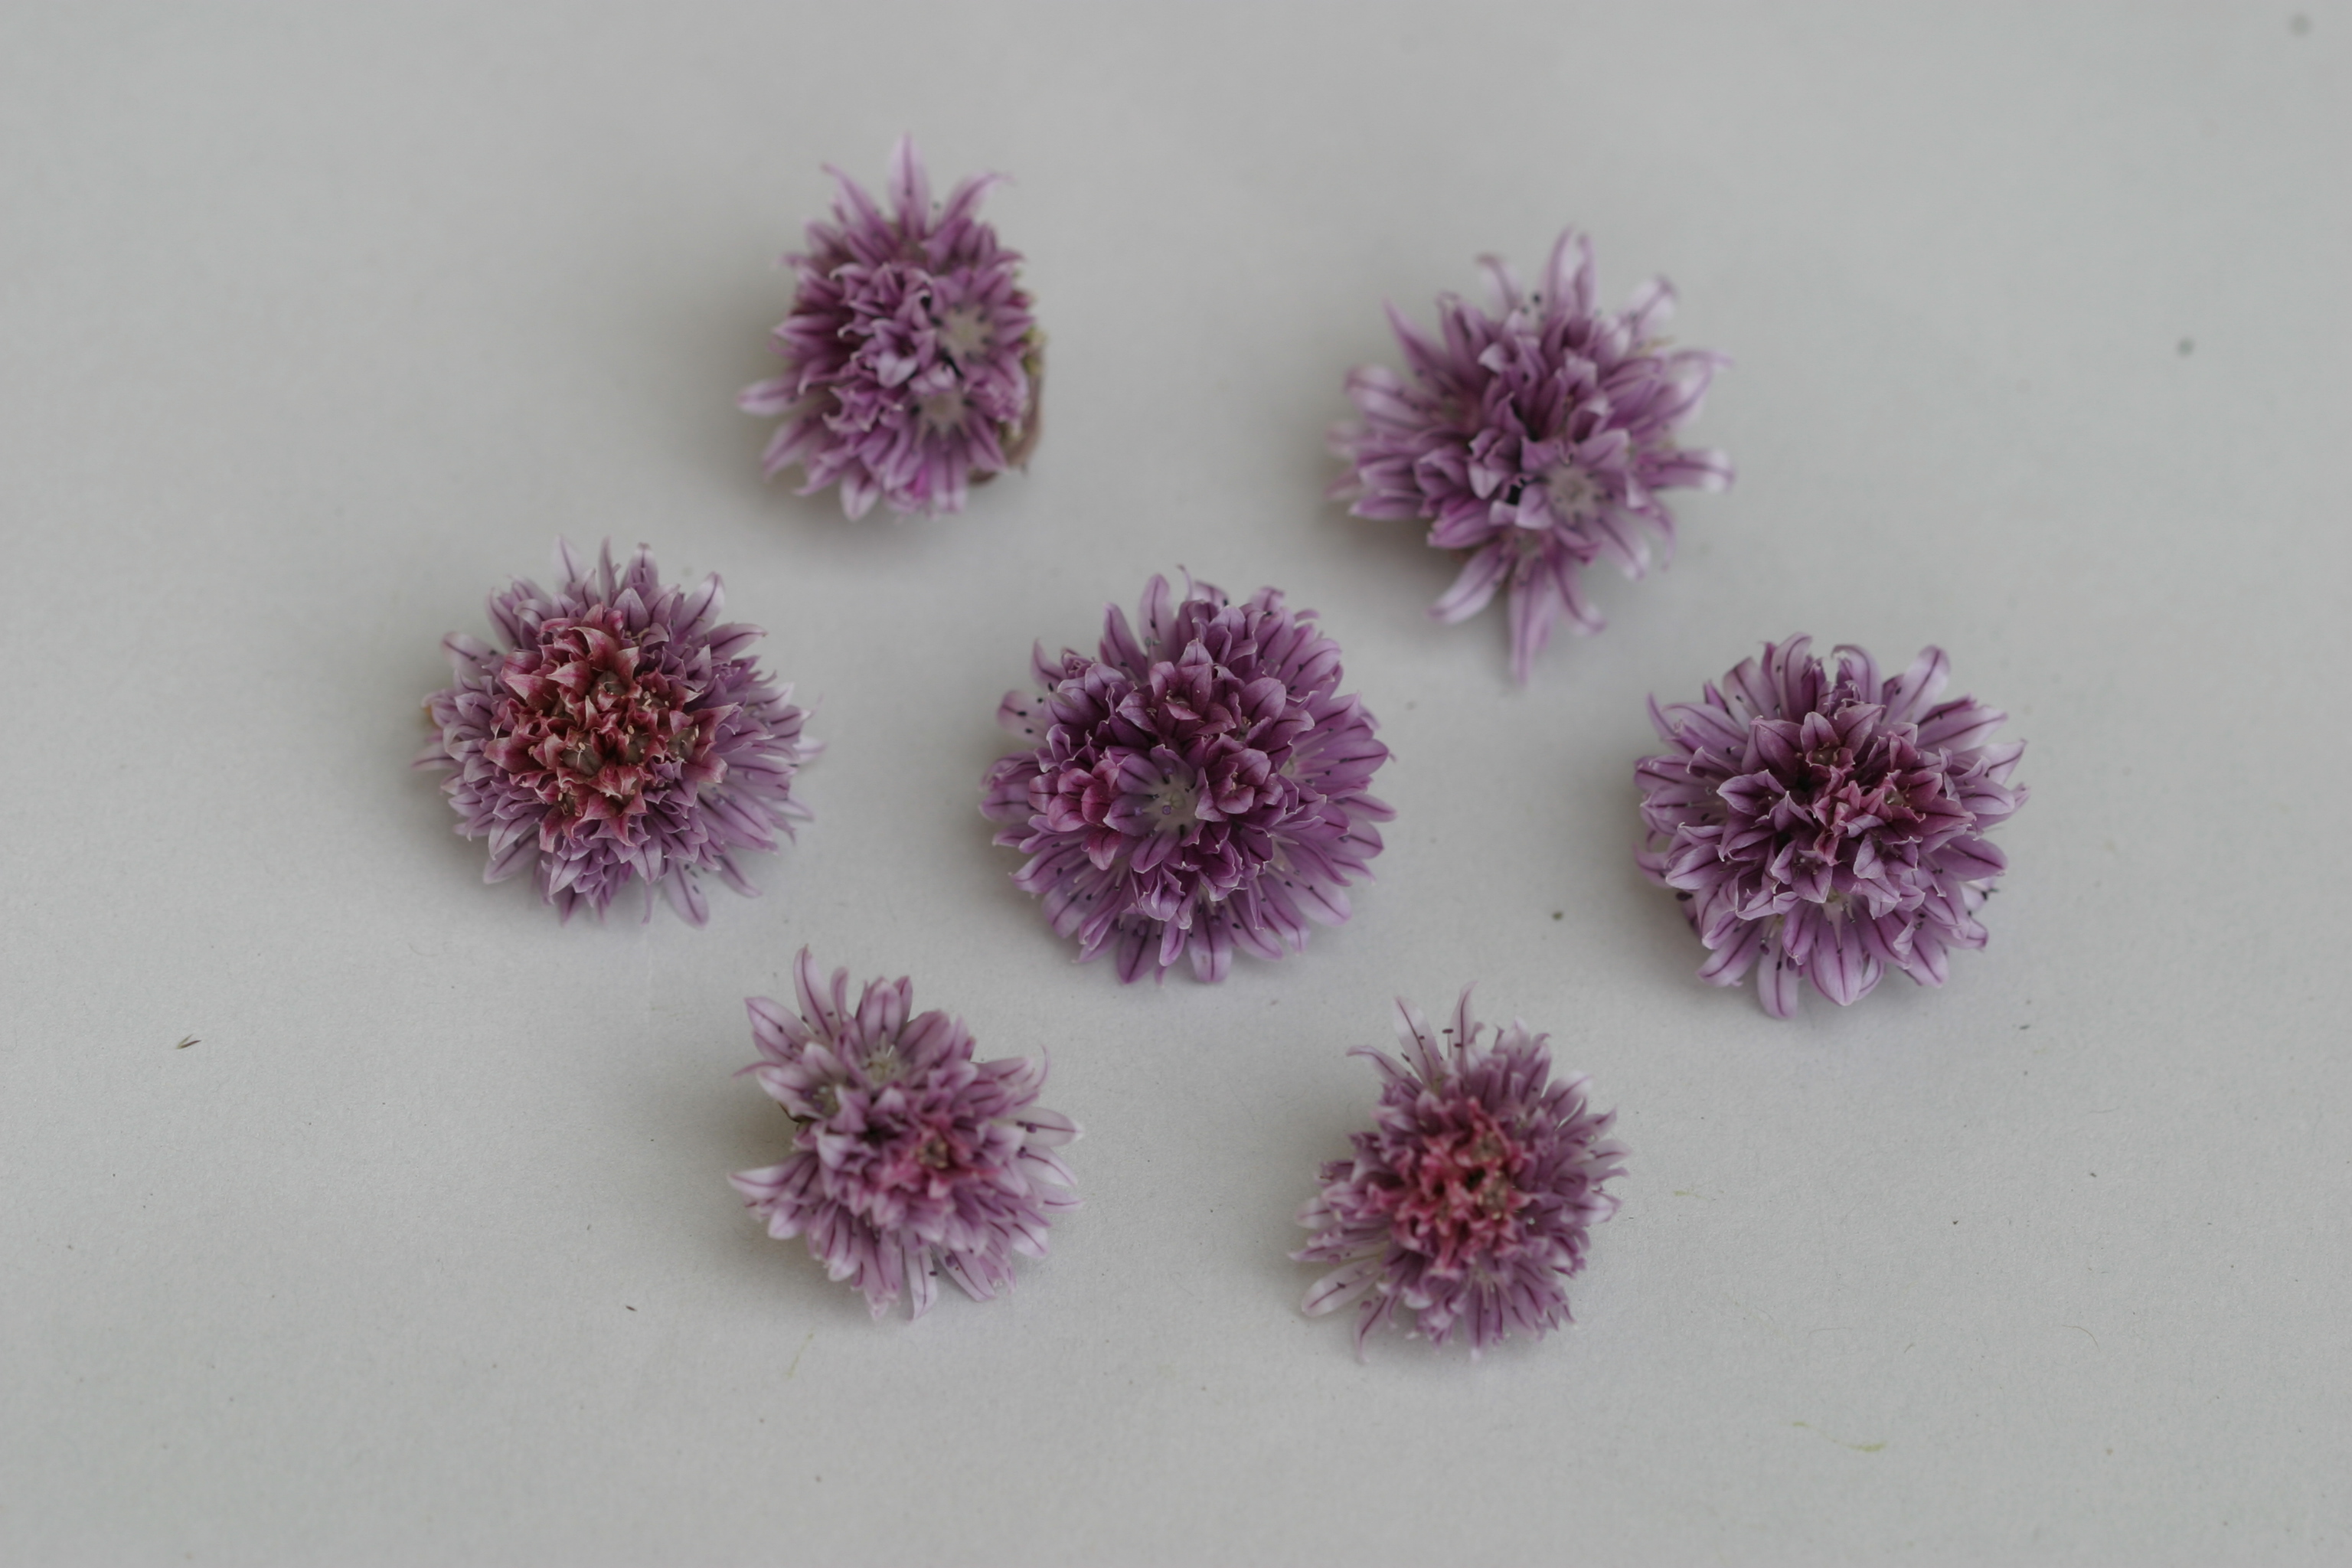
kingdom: Plantae
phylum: Tracheophyta
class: Liliopsida
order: Asparagales
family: Amaryllidaceae
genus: Allium
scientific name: Allium schoenoprasum
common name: Chives
